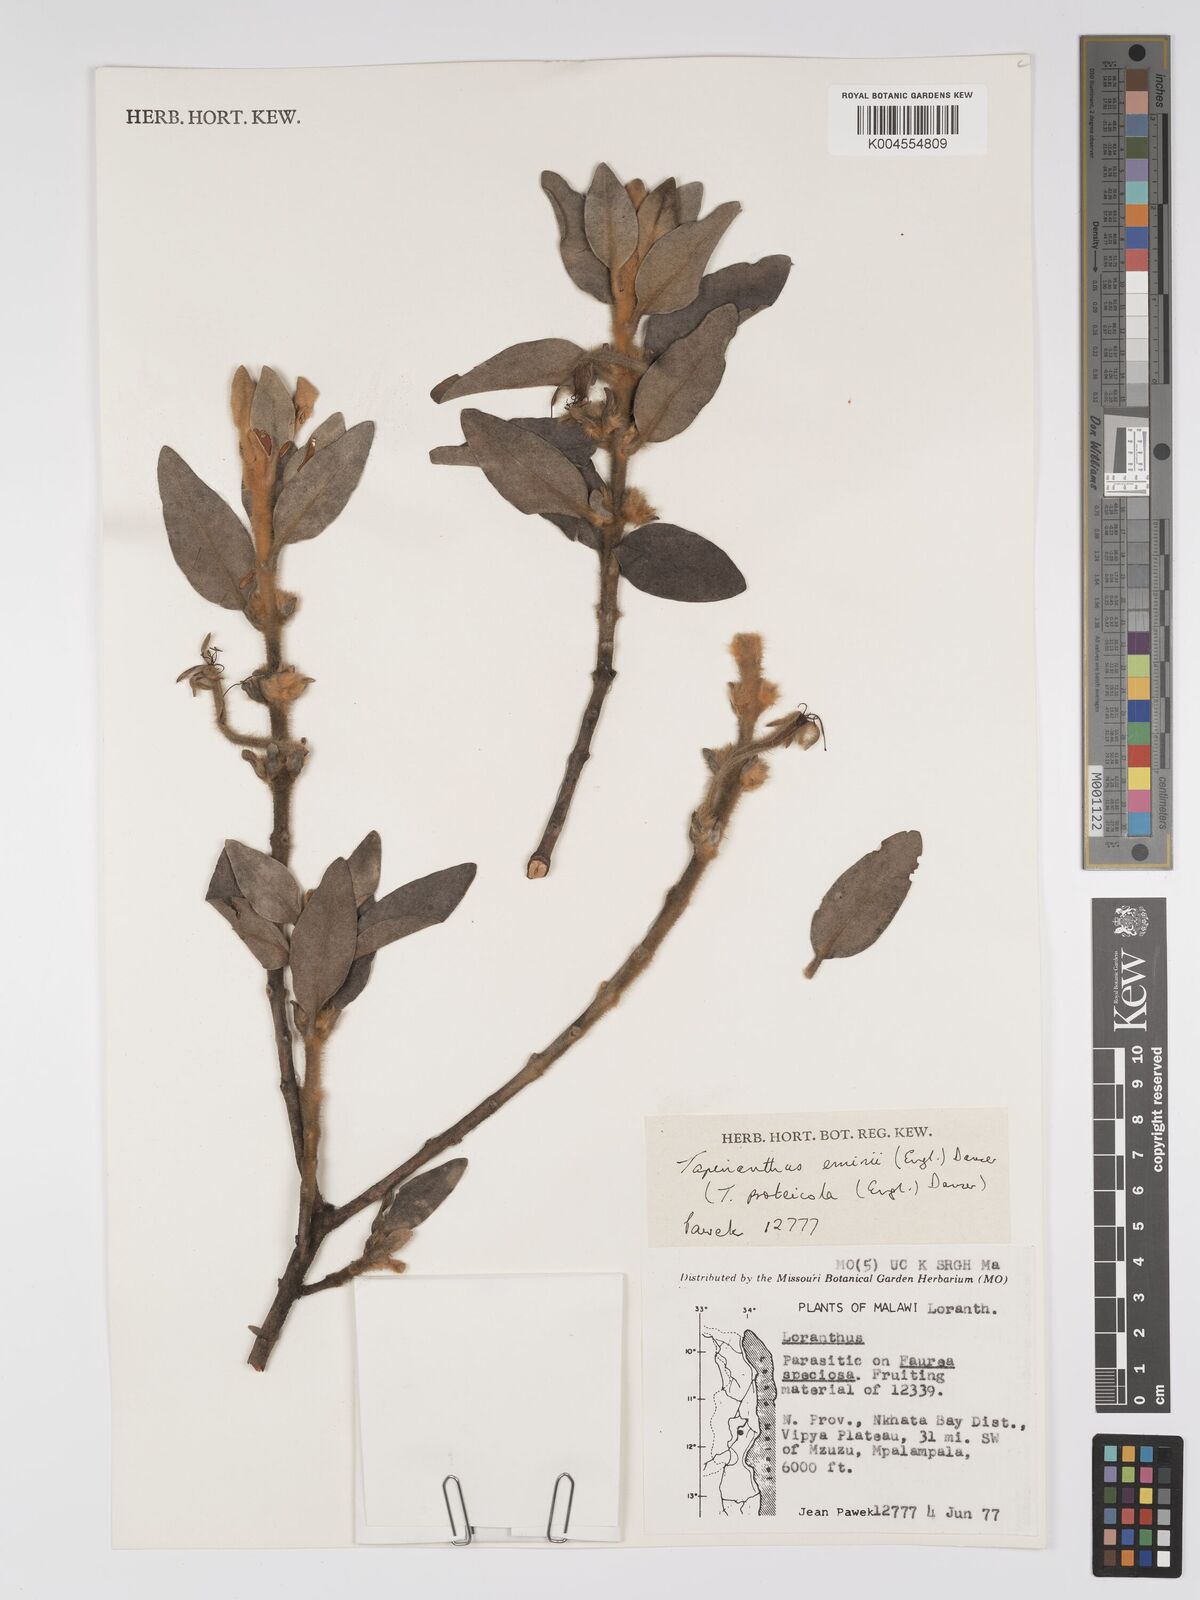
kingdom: Plantae
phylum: Tracheophyta
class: Magnoliopsida
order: Santalales
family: Loranthaceae
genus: Phragmanthera
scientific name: Phragmanthera proteicola
